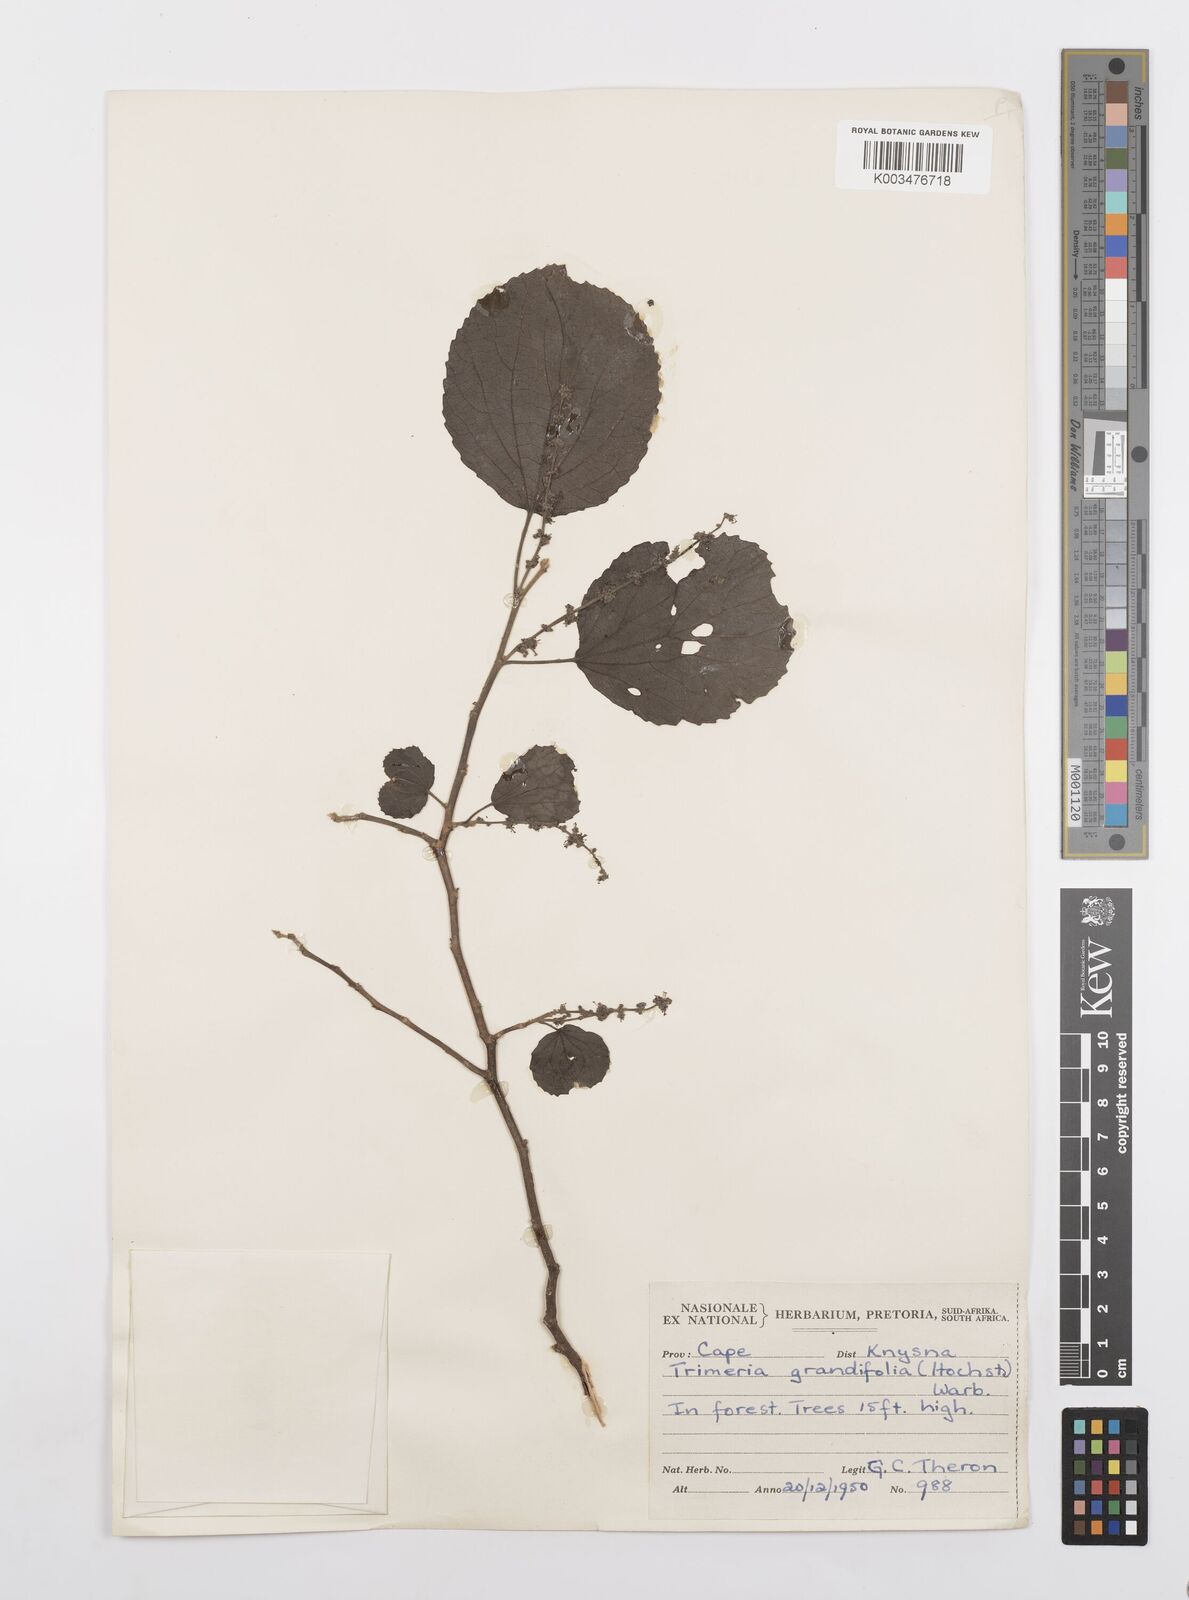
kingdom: Plantae
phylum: Tracheophyta
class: Magnoliopsida
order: Malpighiales
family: Salicaceae
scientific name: Salicaceae
